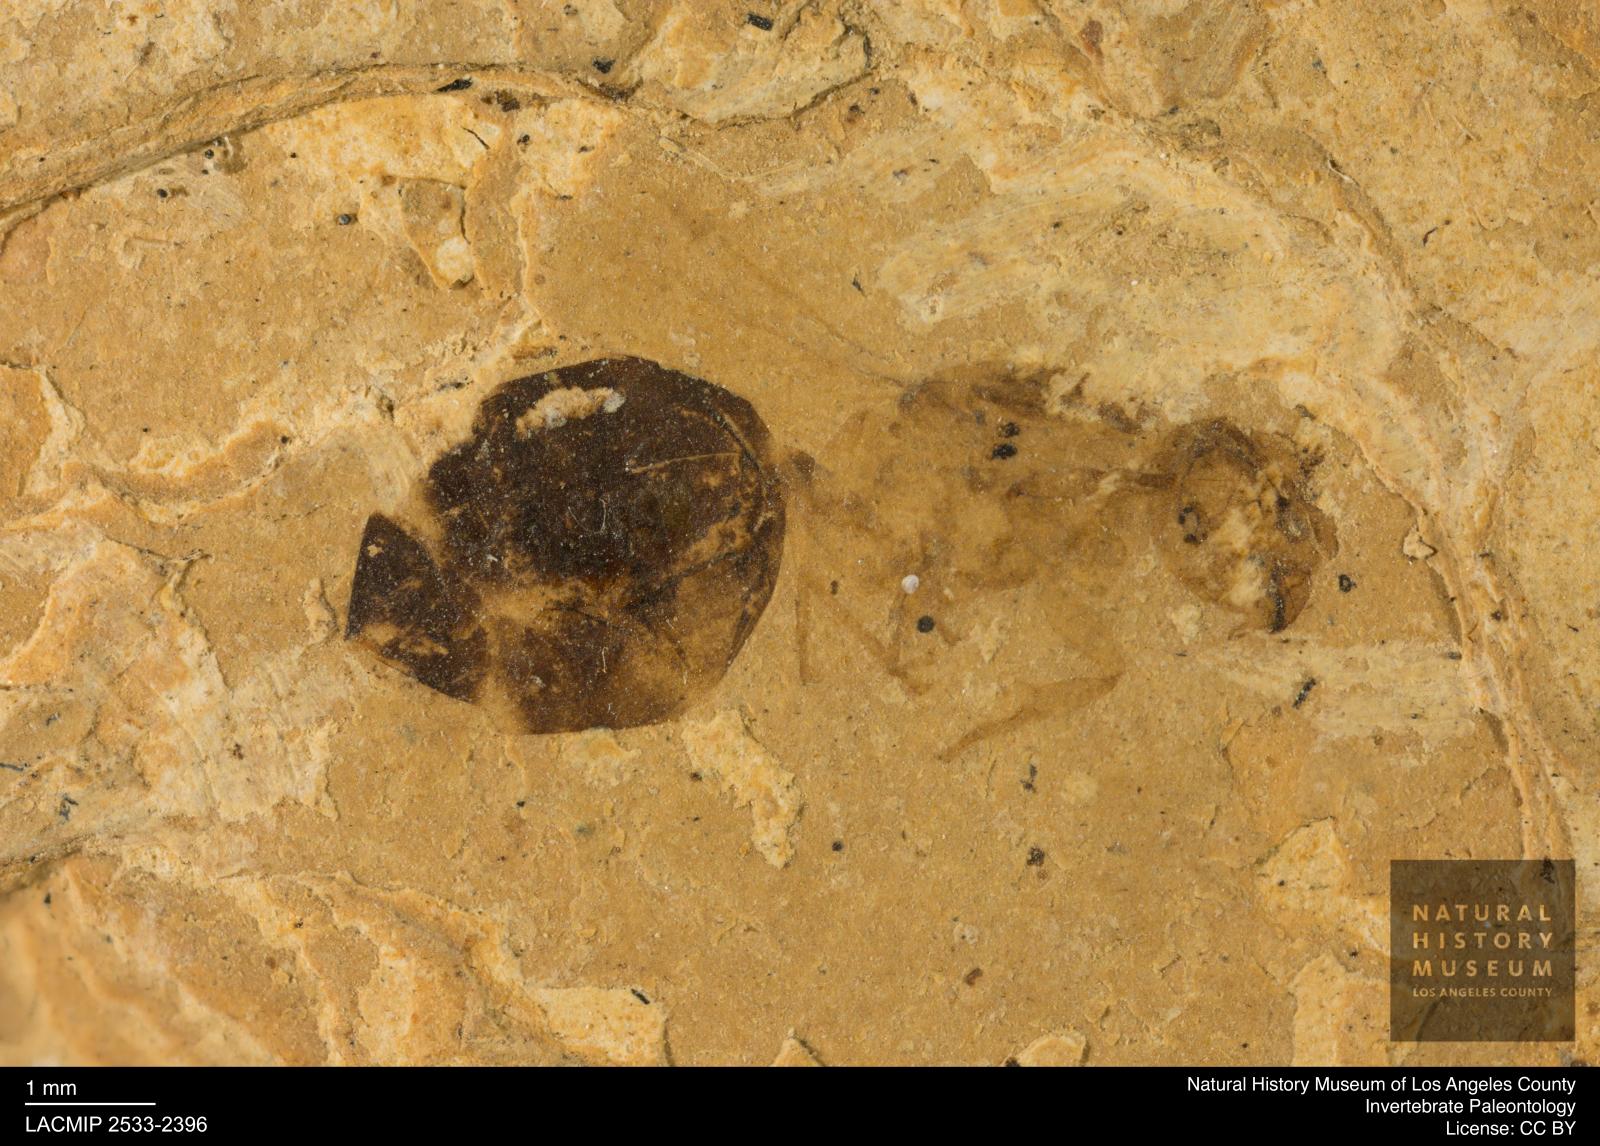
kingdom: Animalia
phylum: Arthropoda
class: Insecta
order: Hymenoptera
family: Formicidae
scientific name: Formicidae
